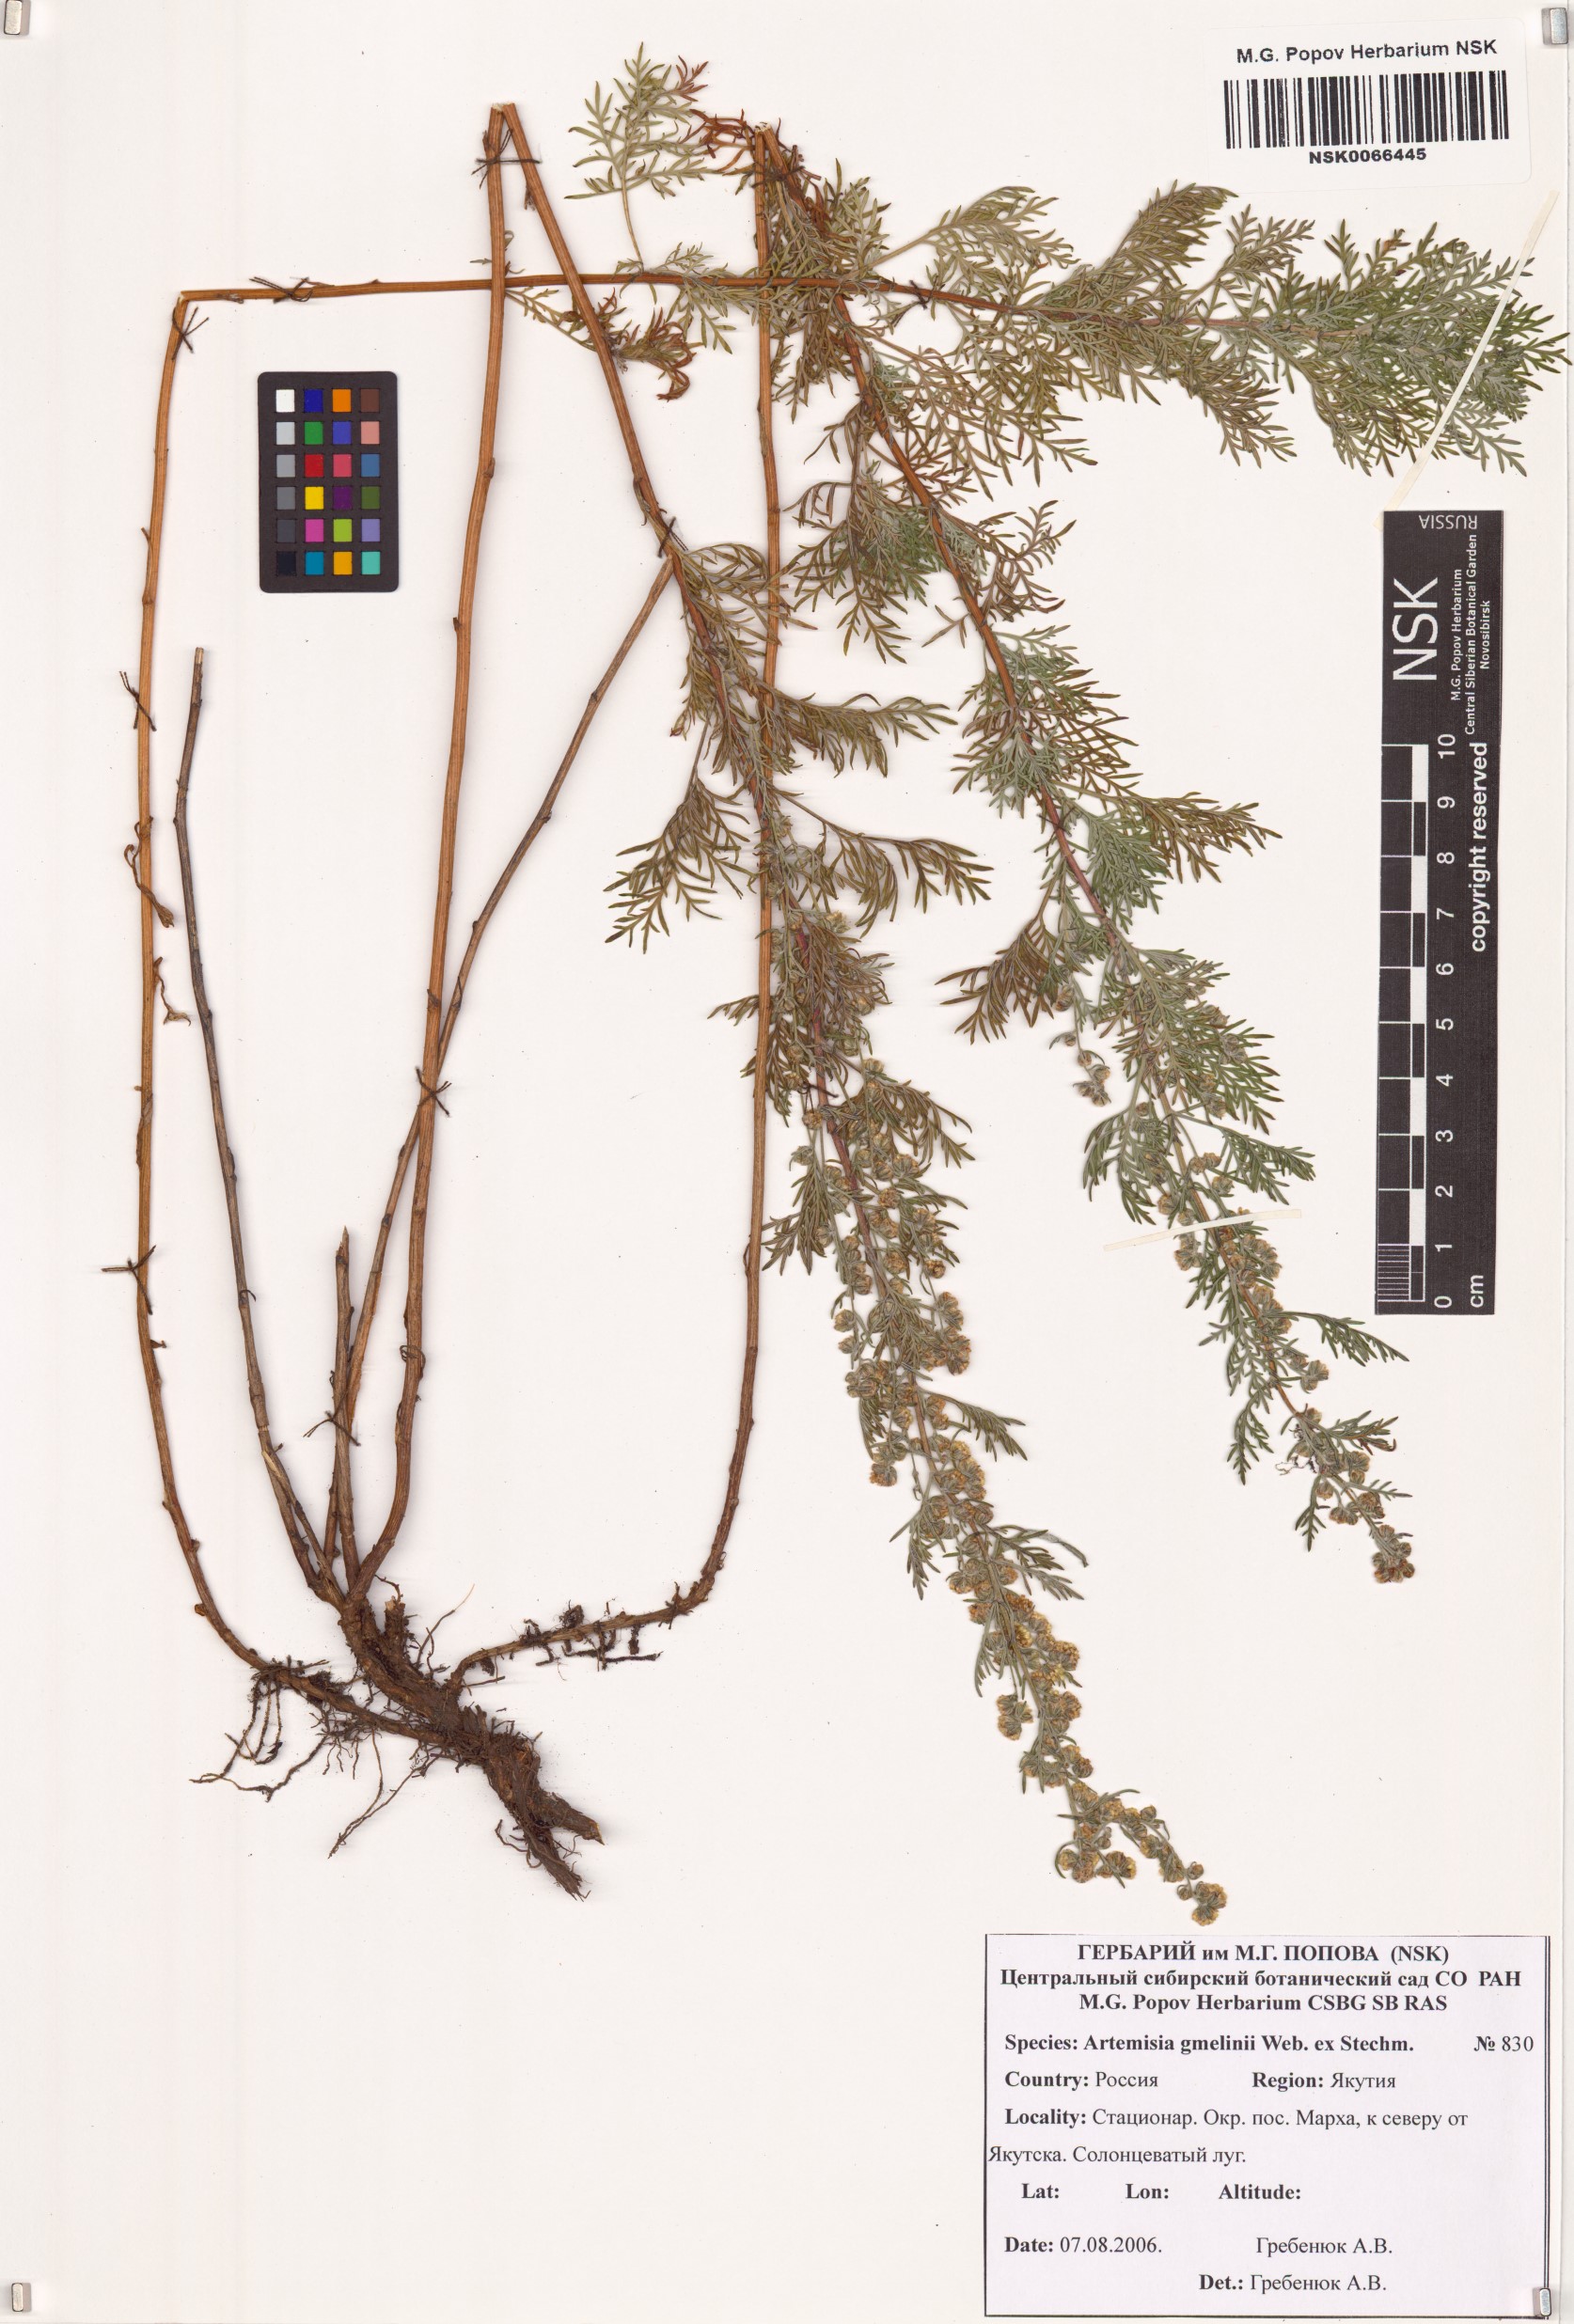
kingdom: Plantae
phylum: Tracheophyta
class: Magnoliopsida
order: Asterales
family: Asteraceae
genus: Artemisia
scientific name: Artemisia gmelinii
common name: Gmelin's wormwood
